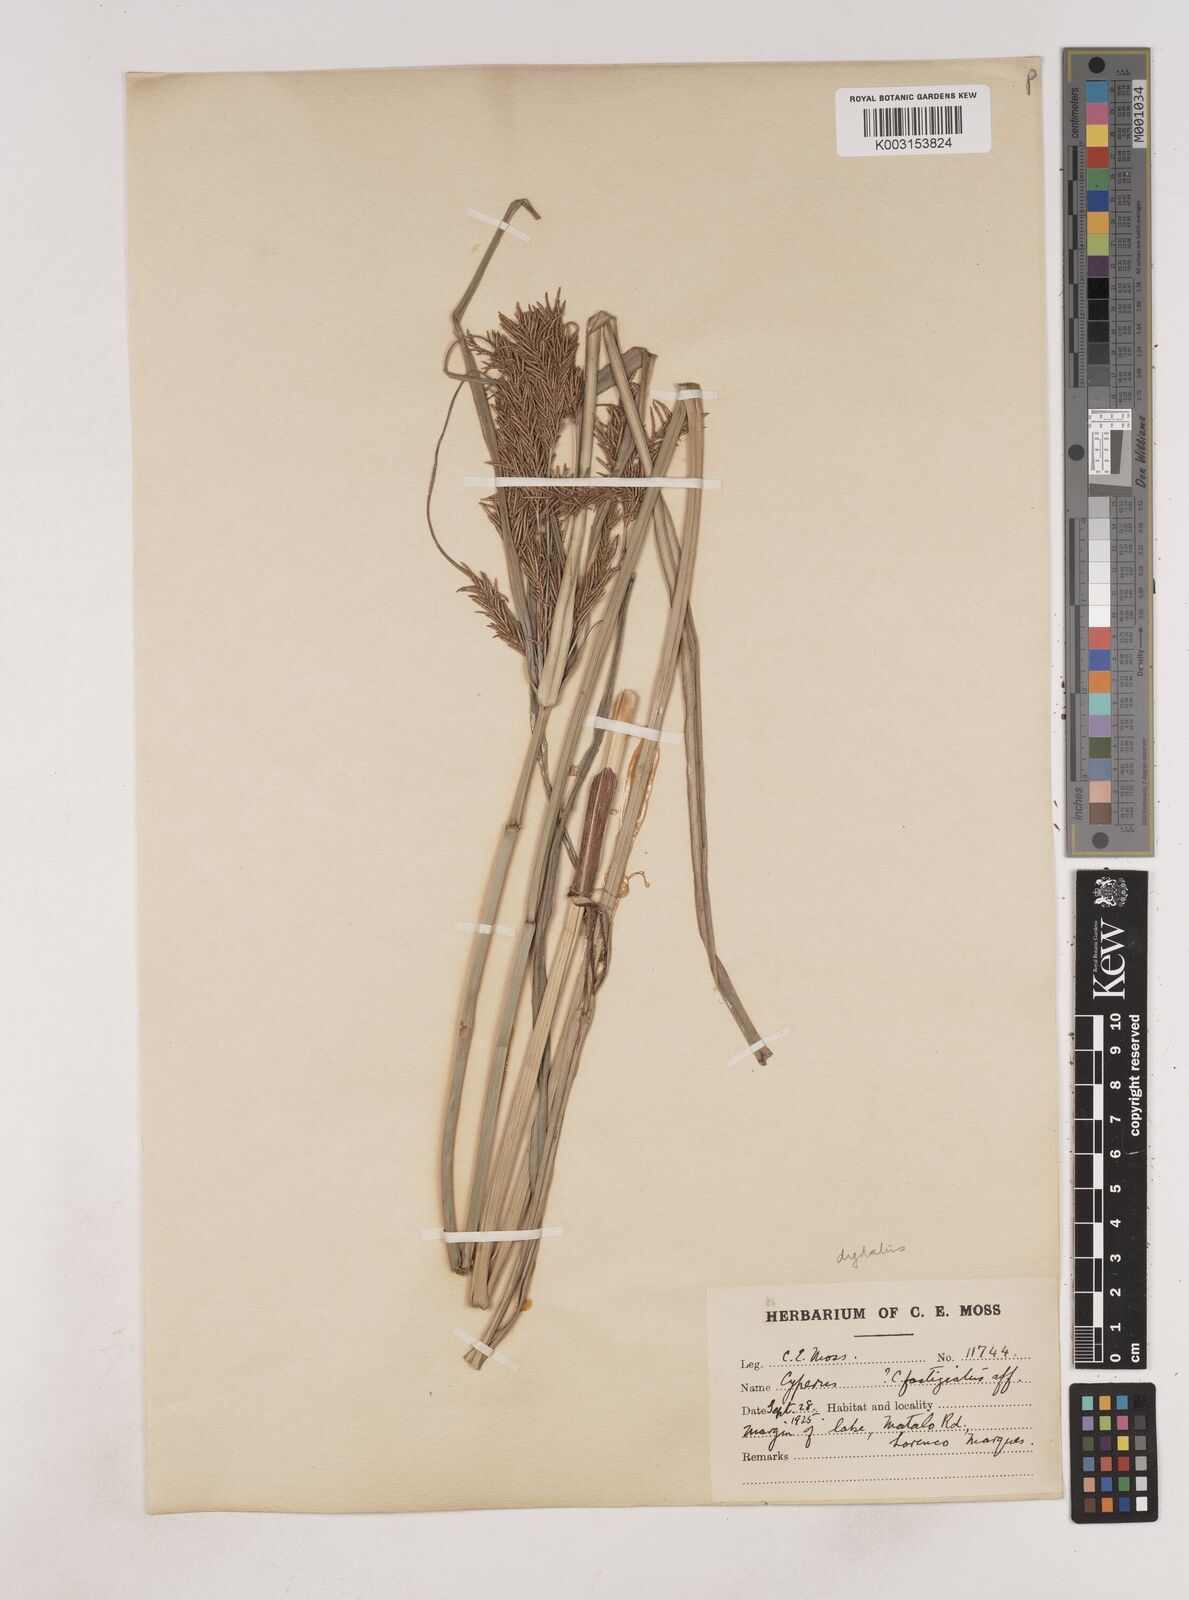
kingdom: Plantae
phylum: Tracheophyta
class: Liliopsida
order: Poales
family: Cyperaceae
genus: Cyperus
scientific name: Cyperus
